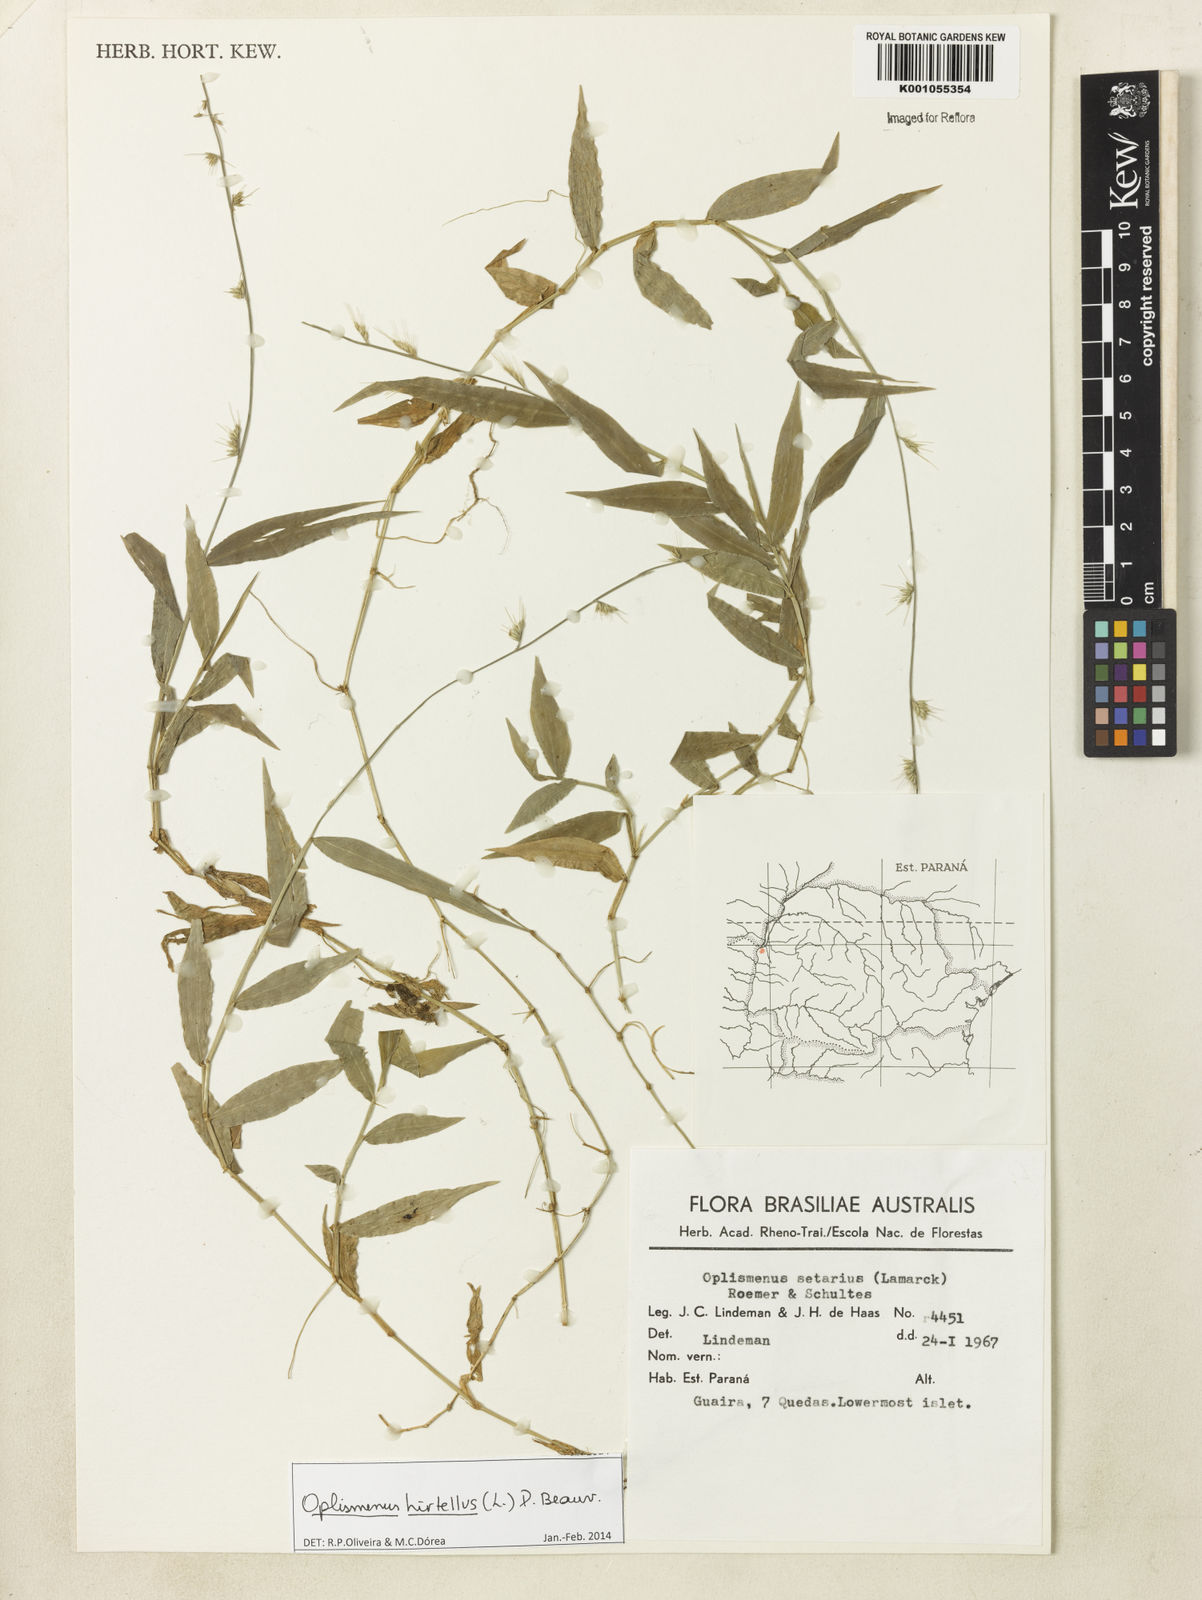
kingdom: Plantae
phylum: Tracheophyta
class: Liliopsida
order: Poales
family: Poaceae
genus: Oplismenus
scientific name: Oplismenus hirtellus
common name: Basketgrass
